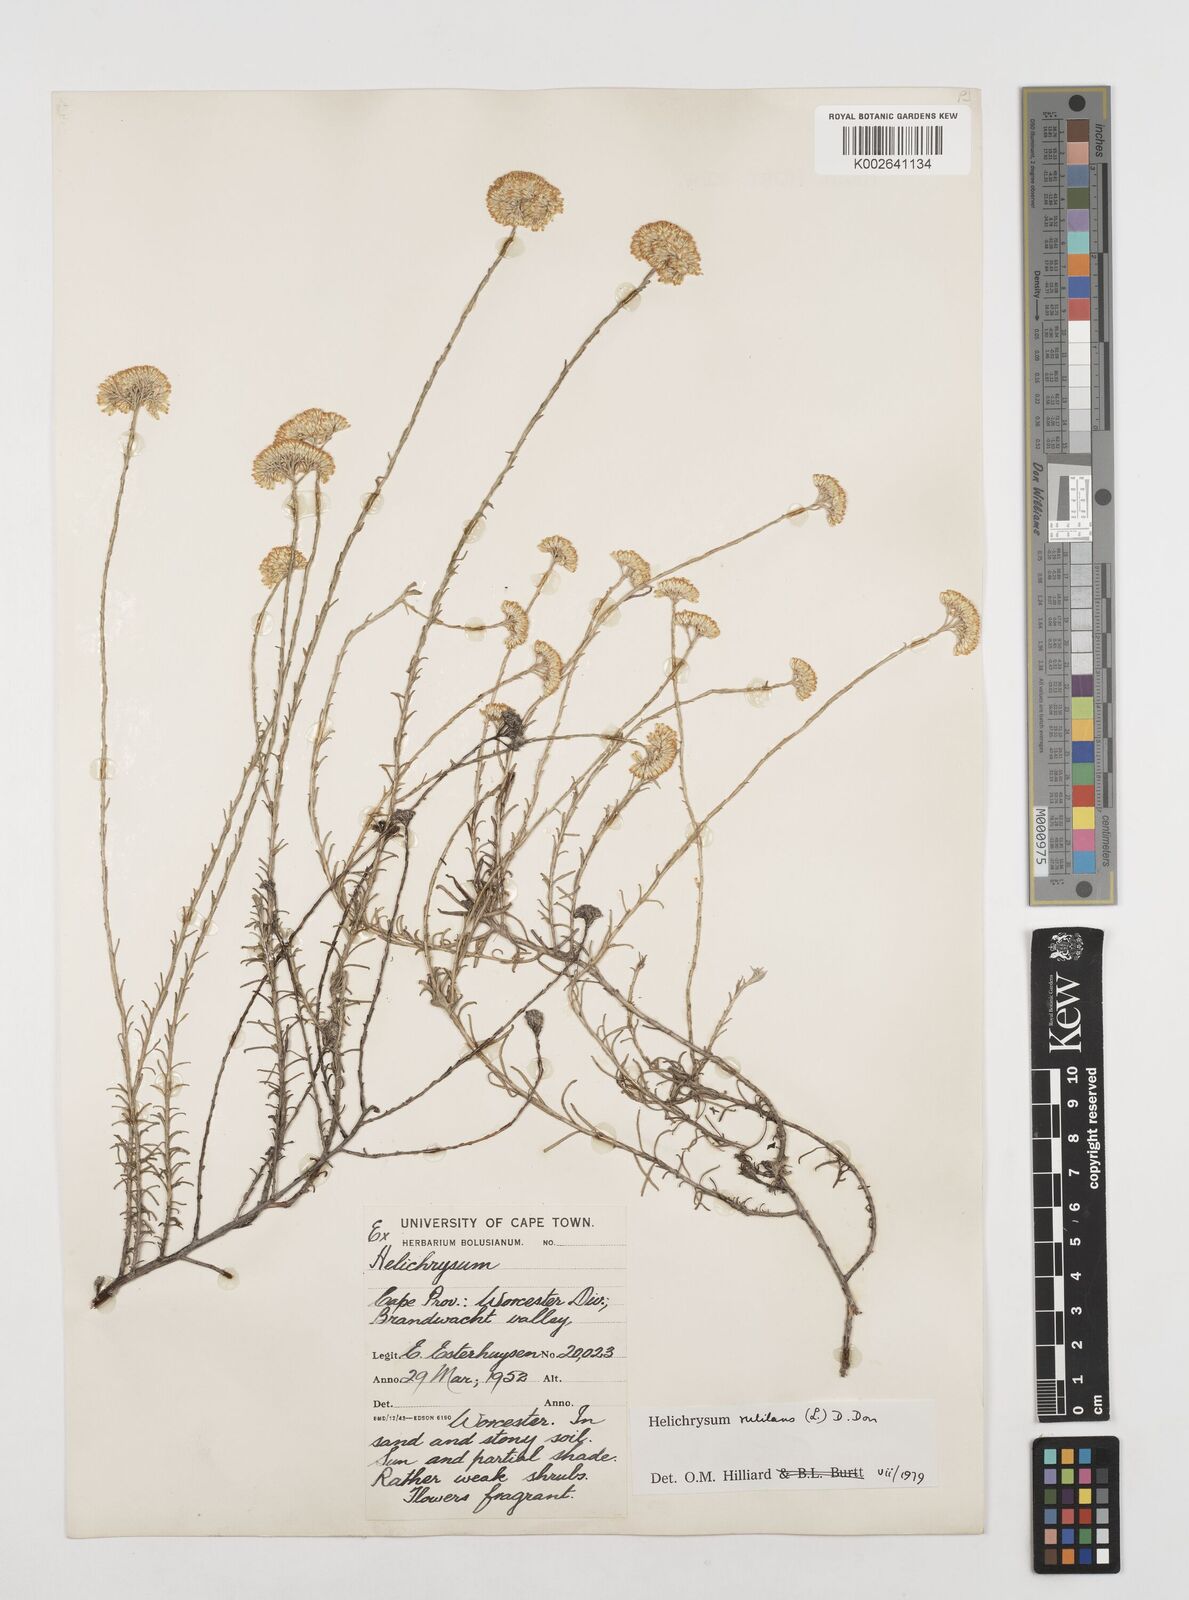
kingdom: Plantae
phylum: Tracheophyta
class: Magnoliopsida
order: Asterales
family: Asteraceae
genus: Helichrysum
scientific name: Helichrysum rutilans
